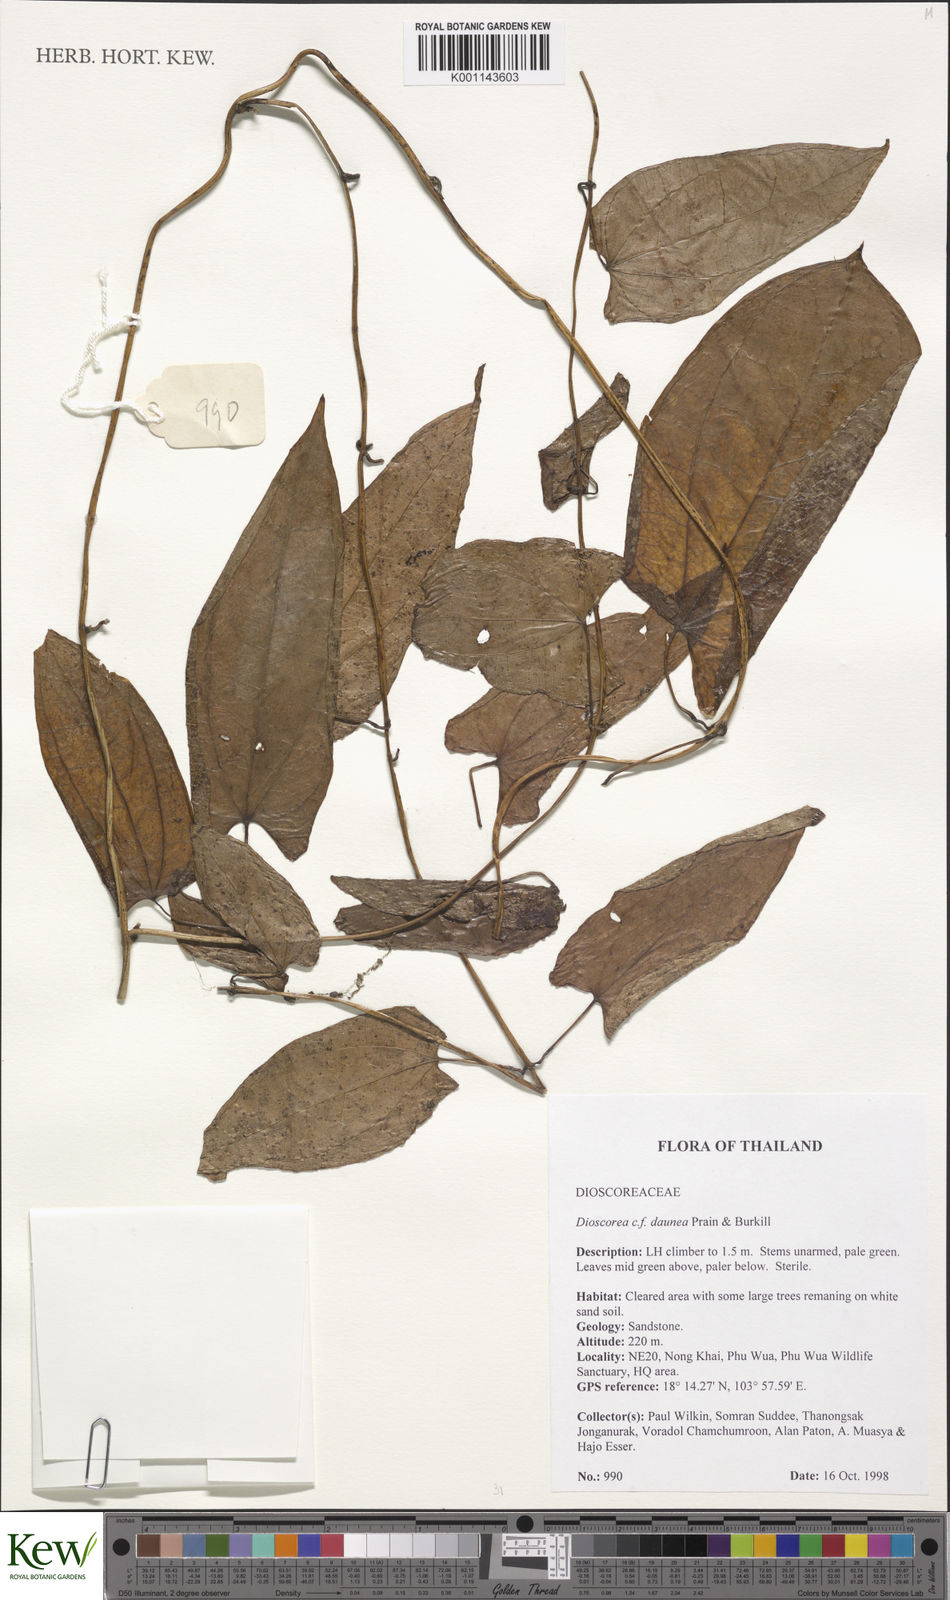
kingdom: Plantae
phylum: Tracheophyta
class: Liliopsida
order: Dioscoreales
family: Dioscoreaceae
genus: Dioscorea
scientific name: Dioscorea daunea
